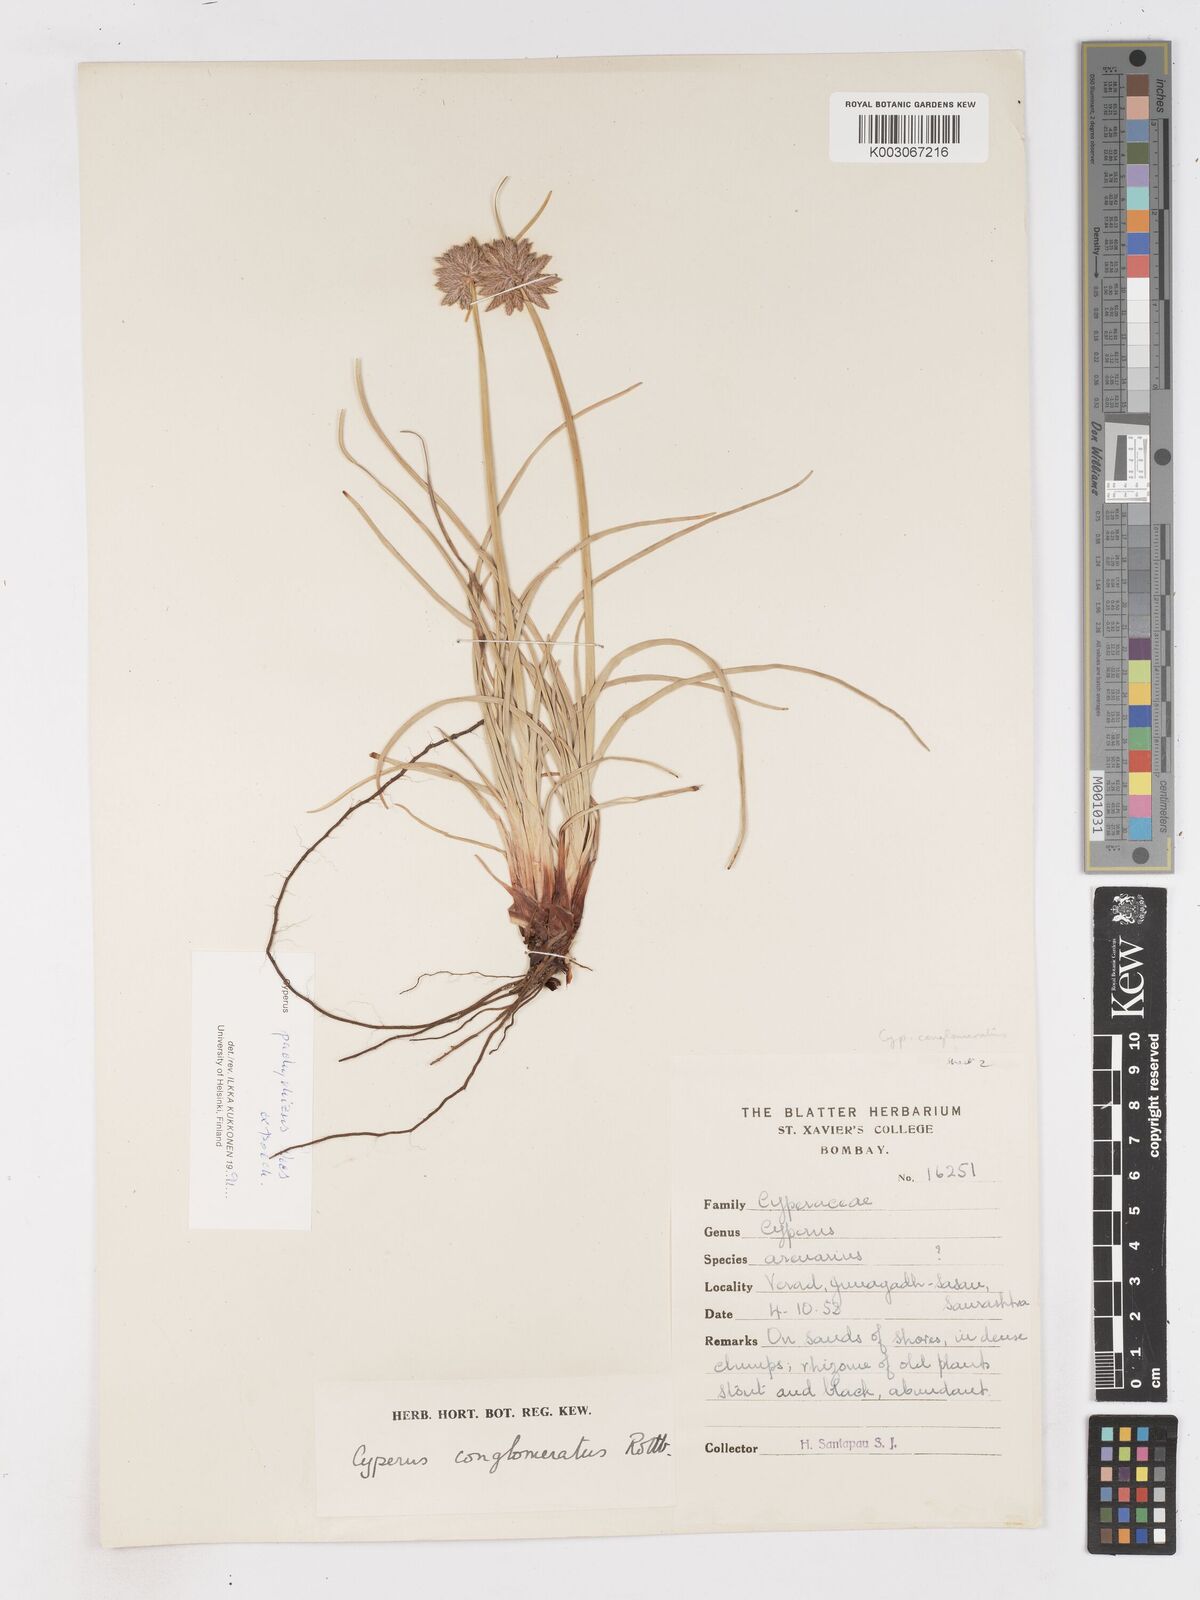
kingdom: Plantae
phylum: Tracheophyta
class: Liliopsida
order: Poales
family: Cyperaceae
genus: Cyperus
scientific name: Cyperus conglomeratus
